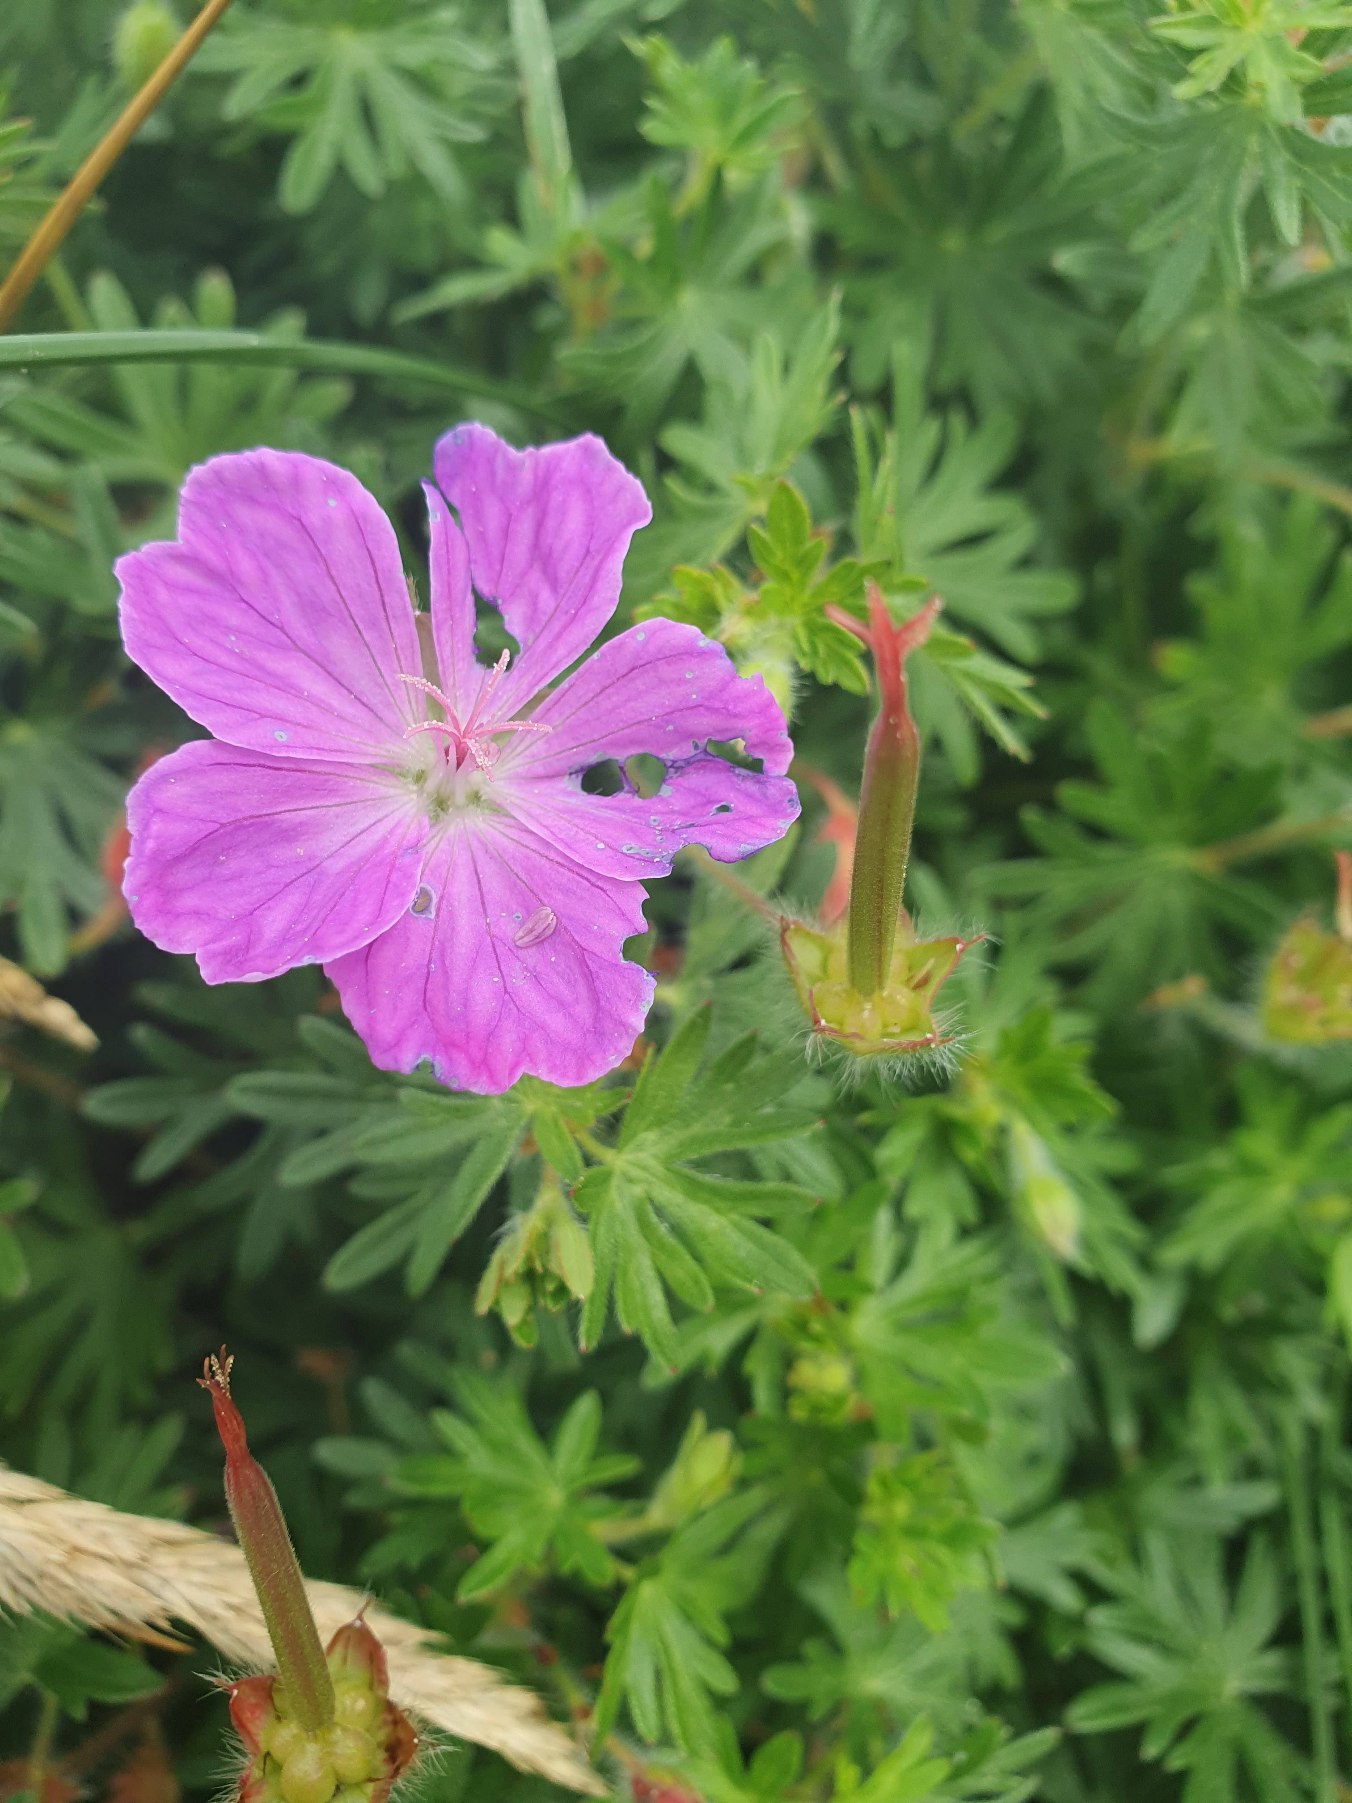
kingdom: Plantae
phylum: Tracheophyta
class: Magnoliopsida
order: Geraniales
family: Geraniaceae
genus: Geranium
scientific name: Geranium sanguineum
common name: Blodrød storkenæb
